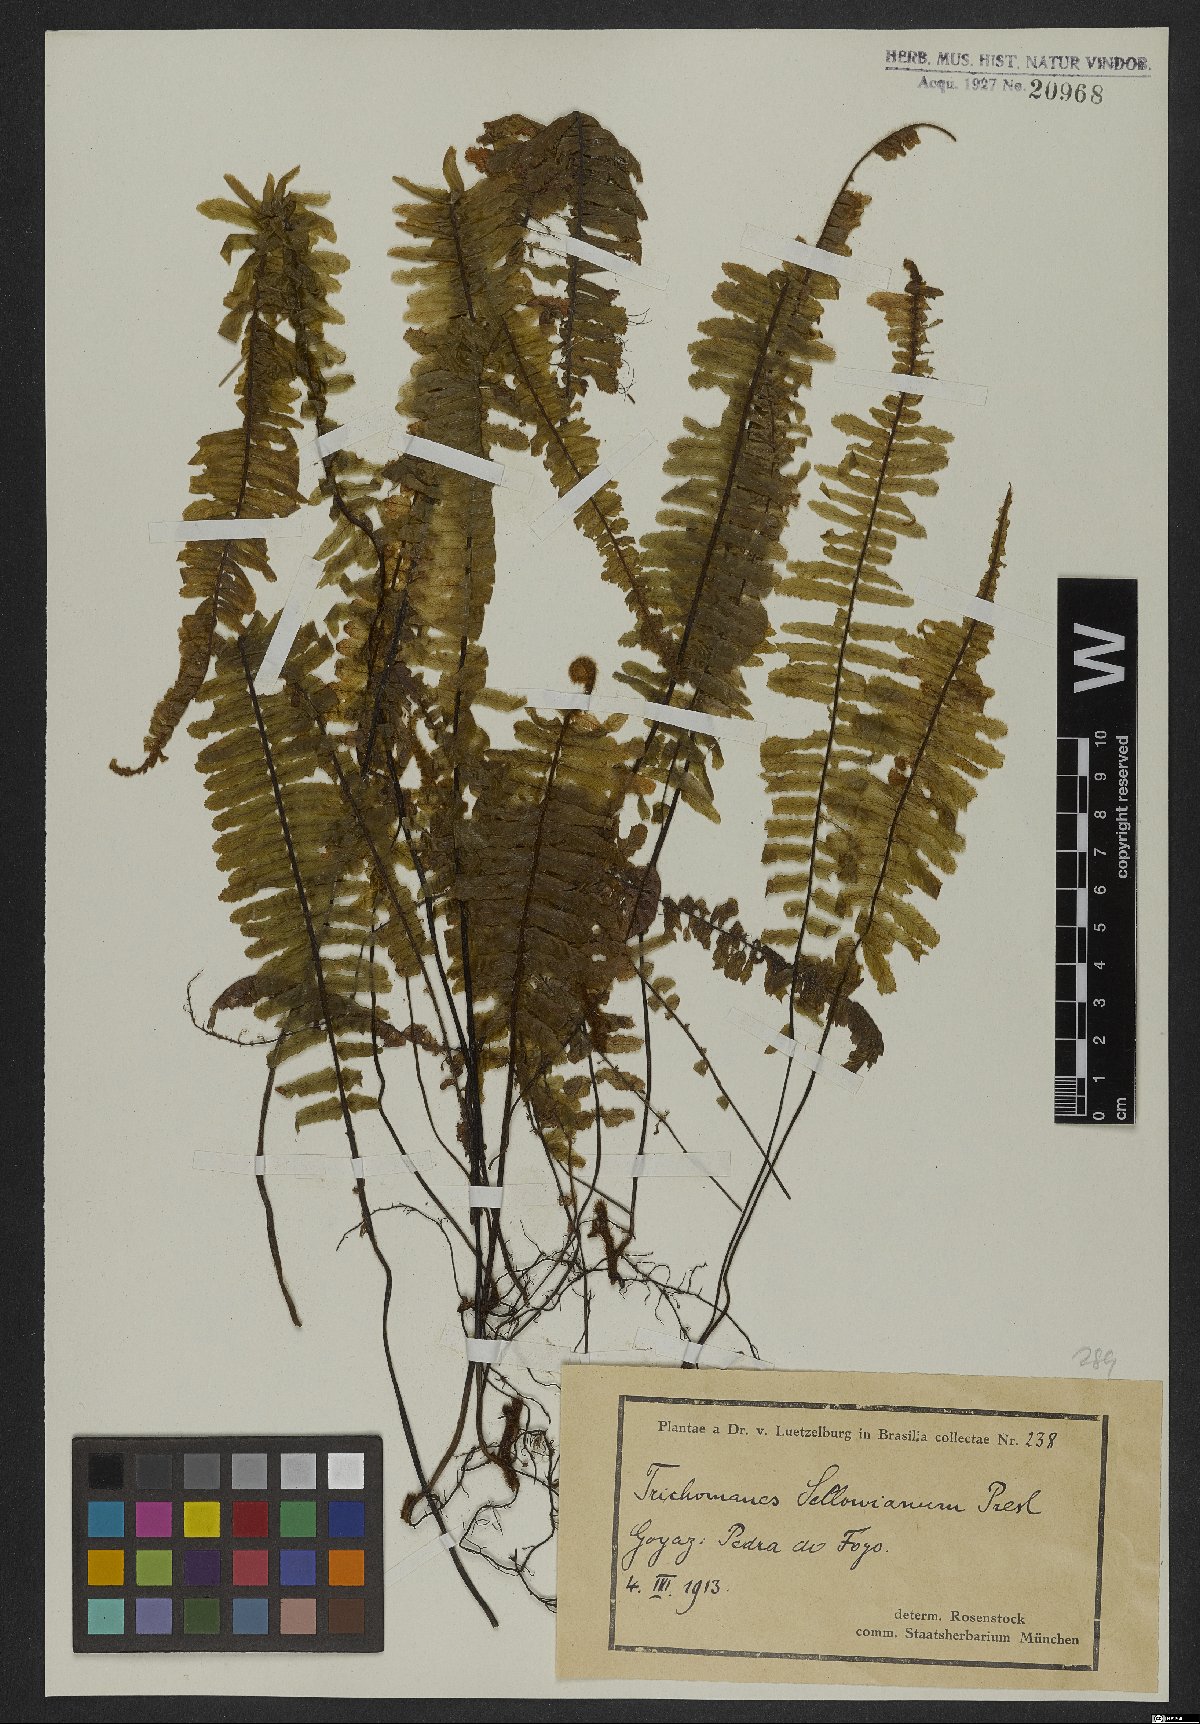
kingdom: Plantae
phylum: Tracheophyta
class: Polypodiopsida
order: Hymenophyllales
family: Hymenophyllaceae
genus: Trichomanes
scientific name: Trichomanes cristatum
